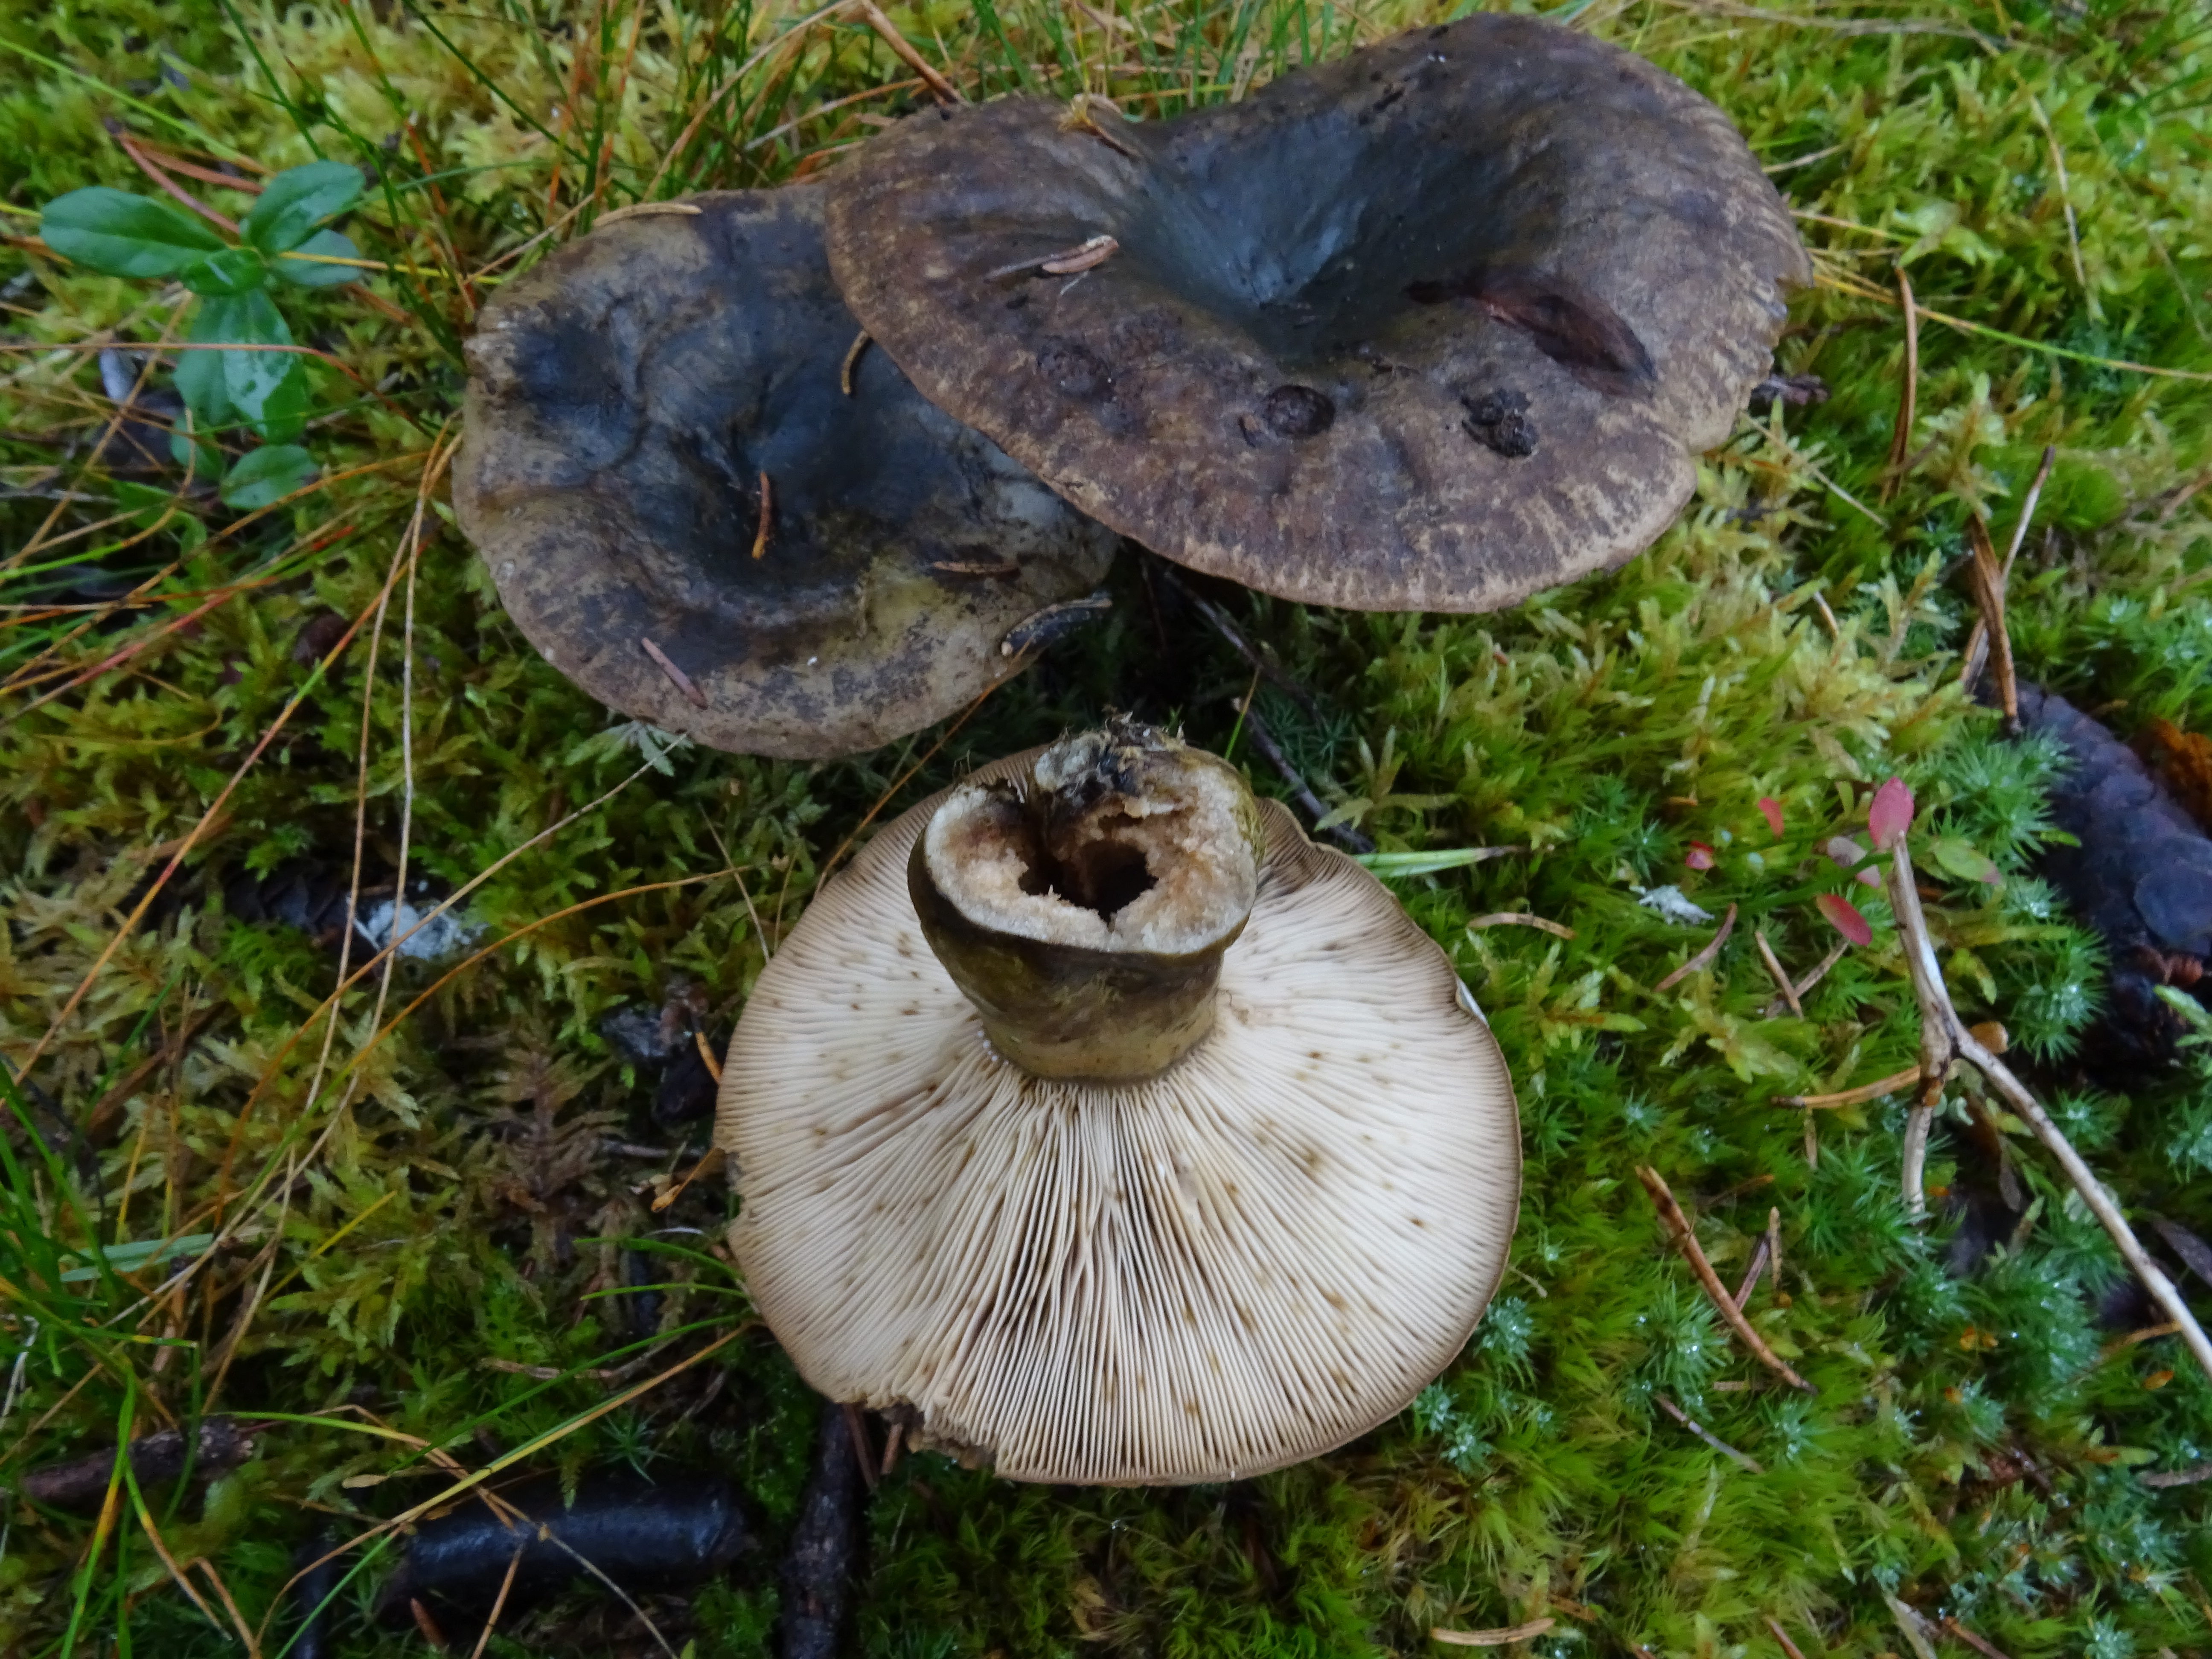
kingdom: Fungi
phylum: Basidiomycota
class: Agaricomycetes
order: Russulales
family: Russulaceae
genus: Lactarius
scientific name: Lactarius turpis
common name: Ugly milk-cap
